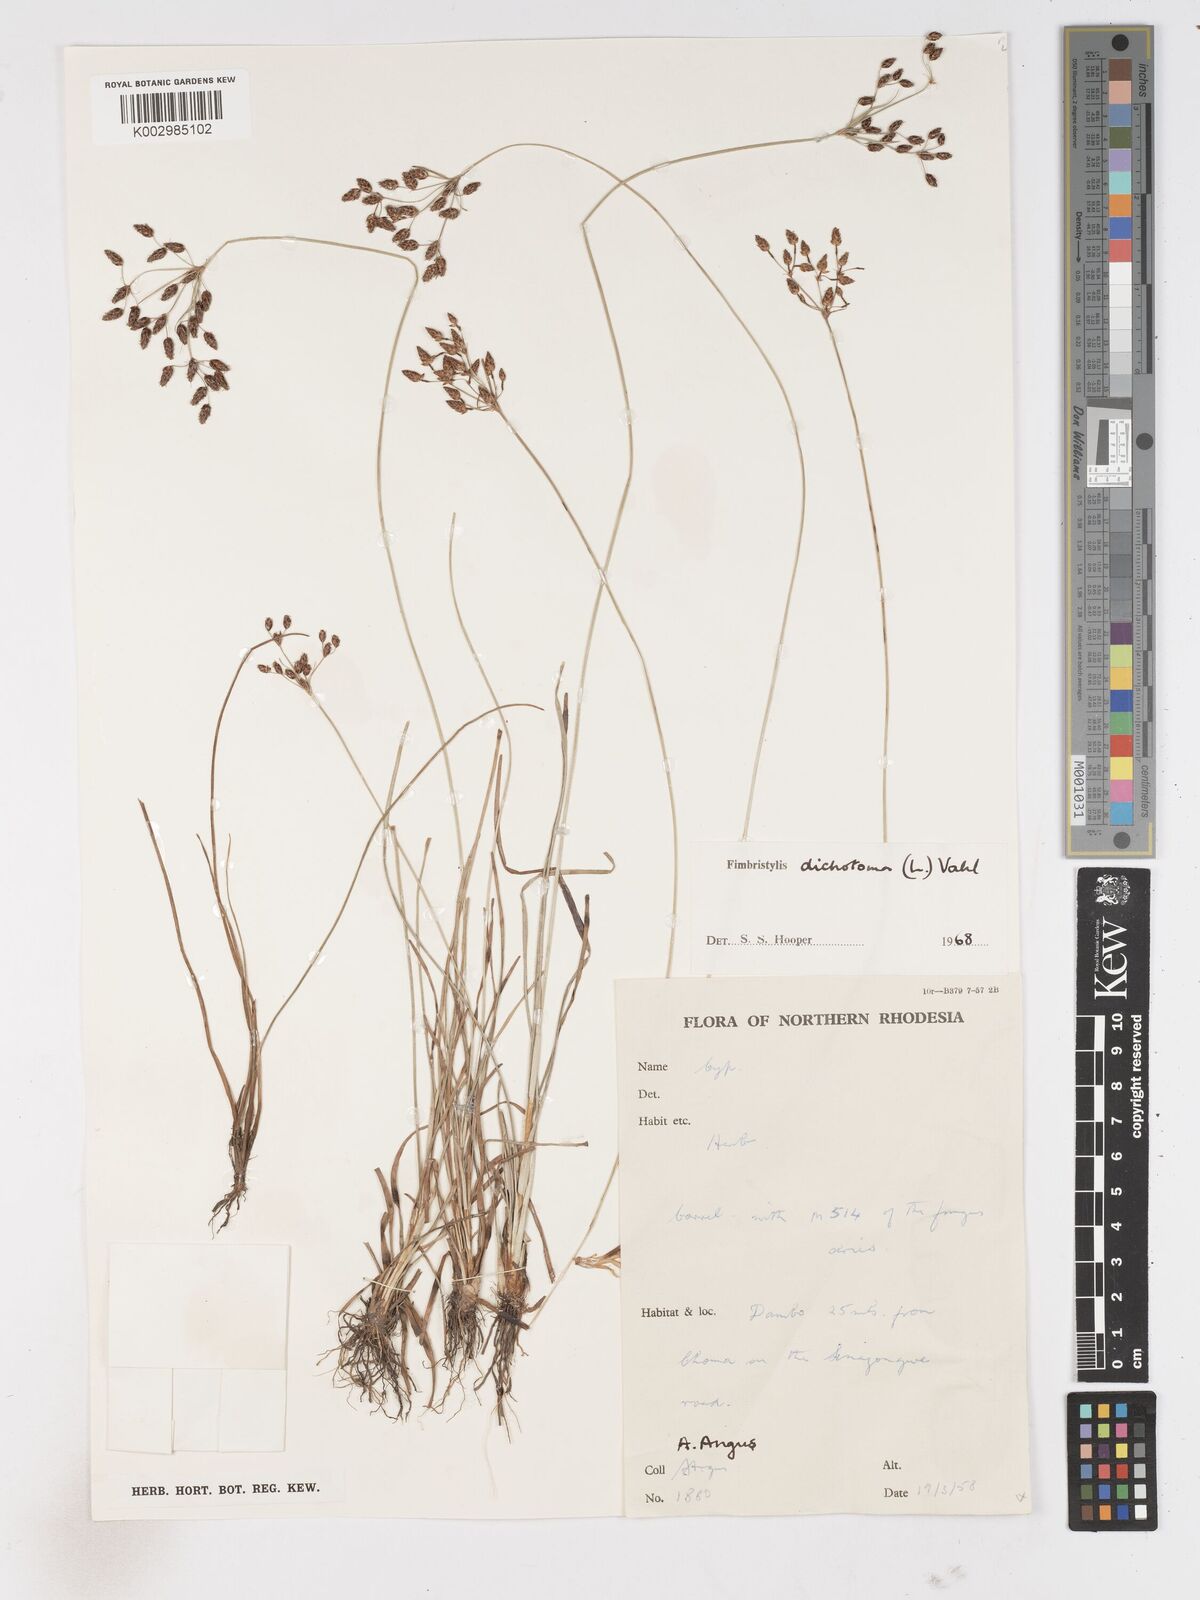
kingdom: Plantae
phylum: Tracheophyta
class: Liliopsida
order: Poales
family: Cyperaceae
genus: Fimbristylis
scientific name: Fimbristylis dichotoma
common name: Forked fimbry
